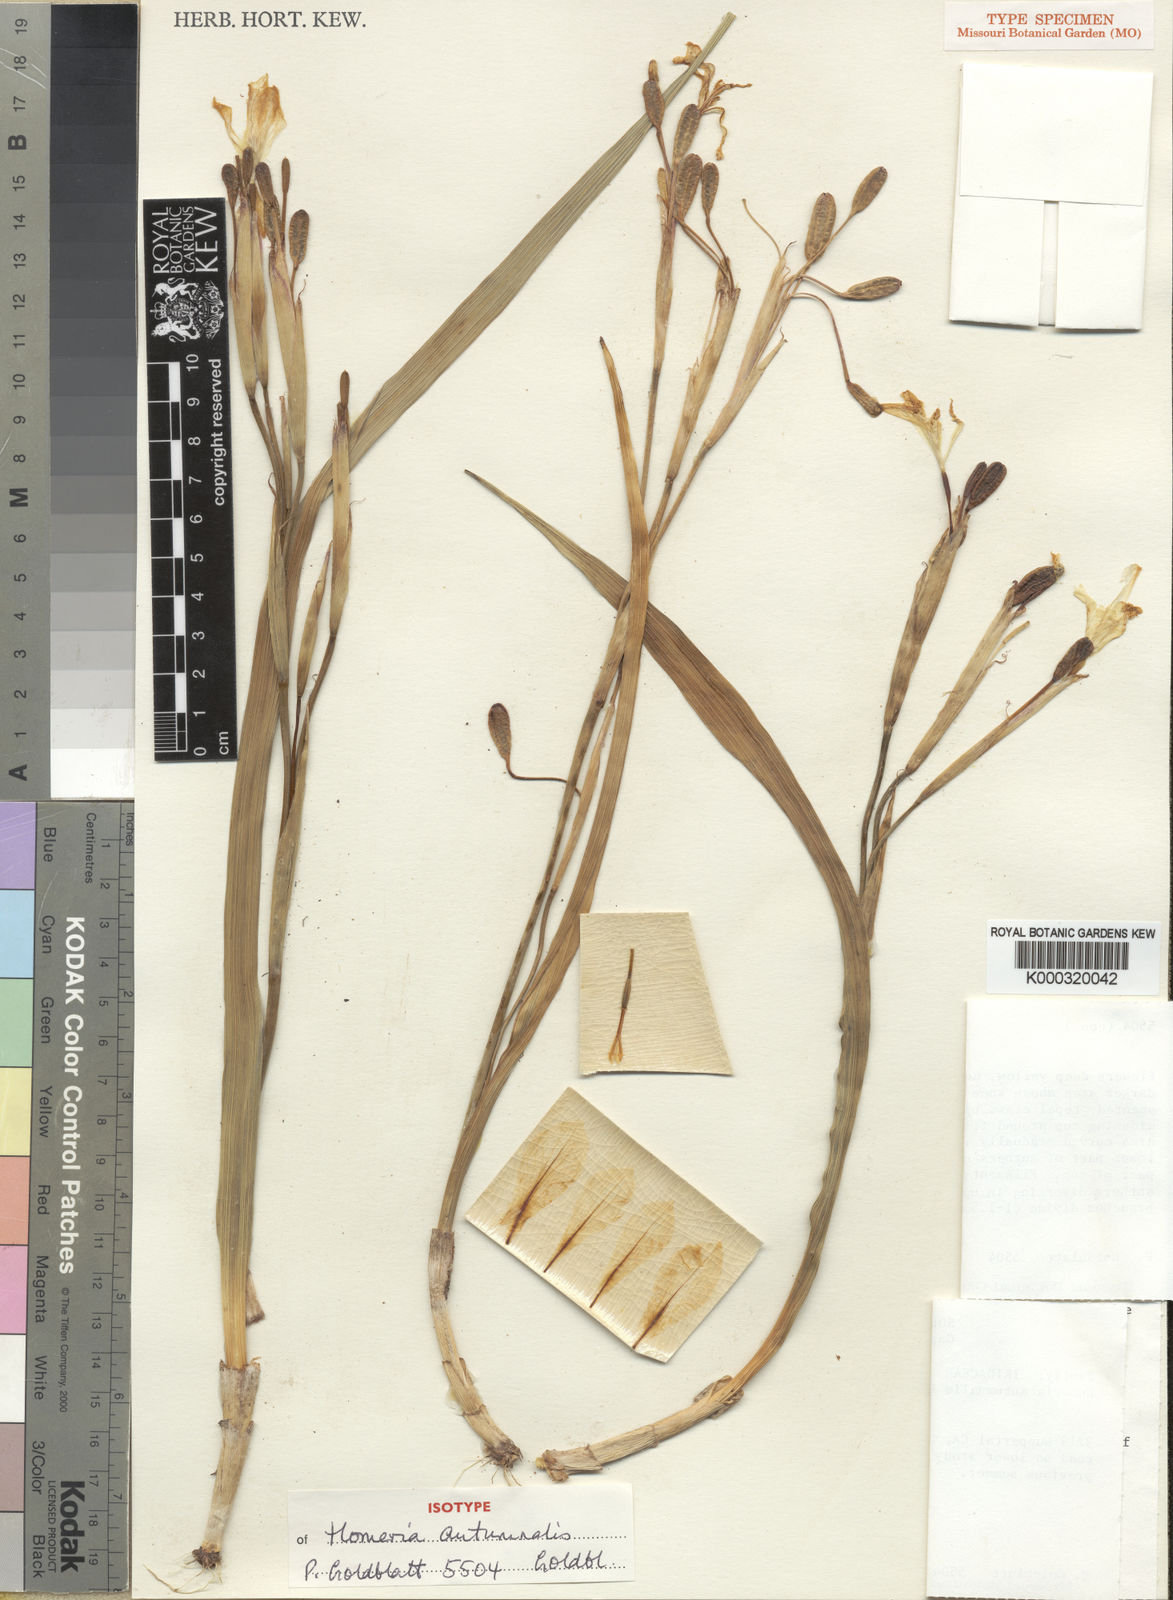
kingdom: Plantae
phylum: Tracheophyta
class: Liliopsida
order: Asparagales
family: Iridaceae
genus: Moraea
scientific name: Moraea autumnalis
